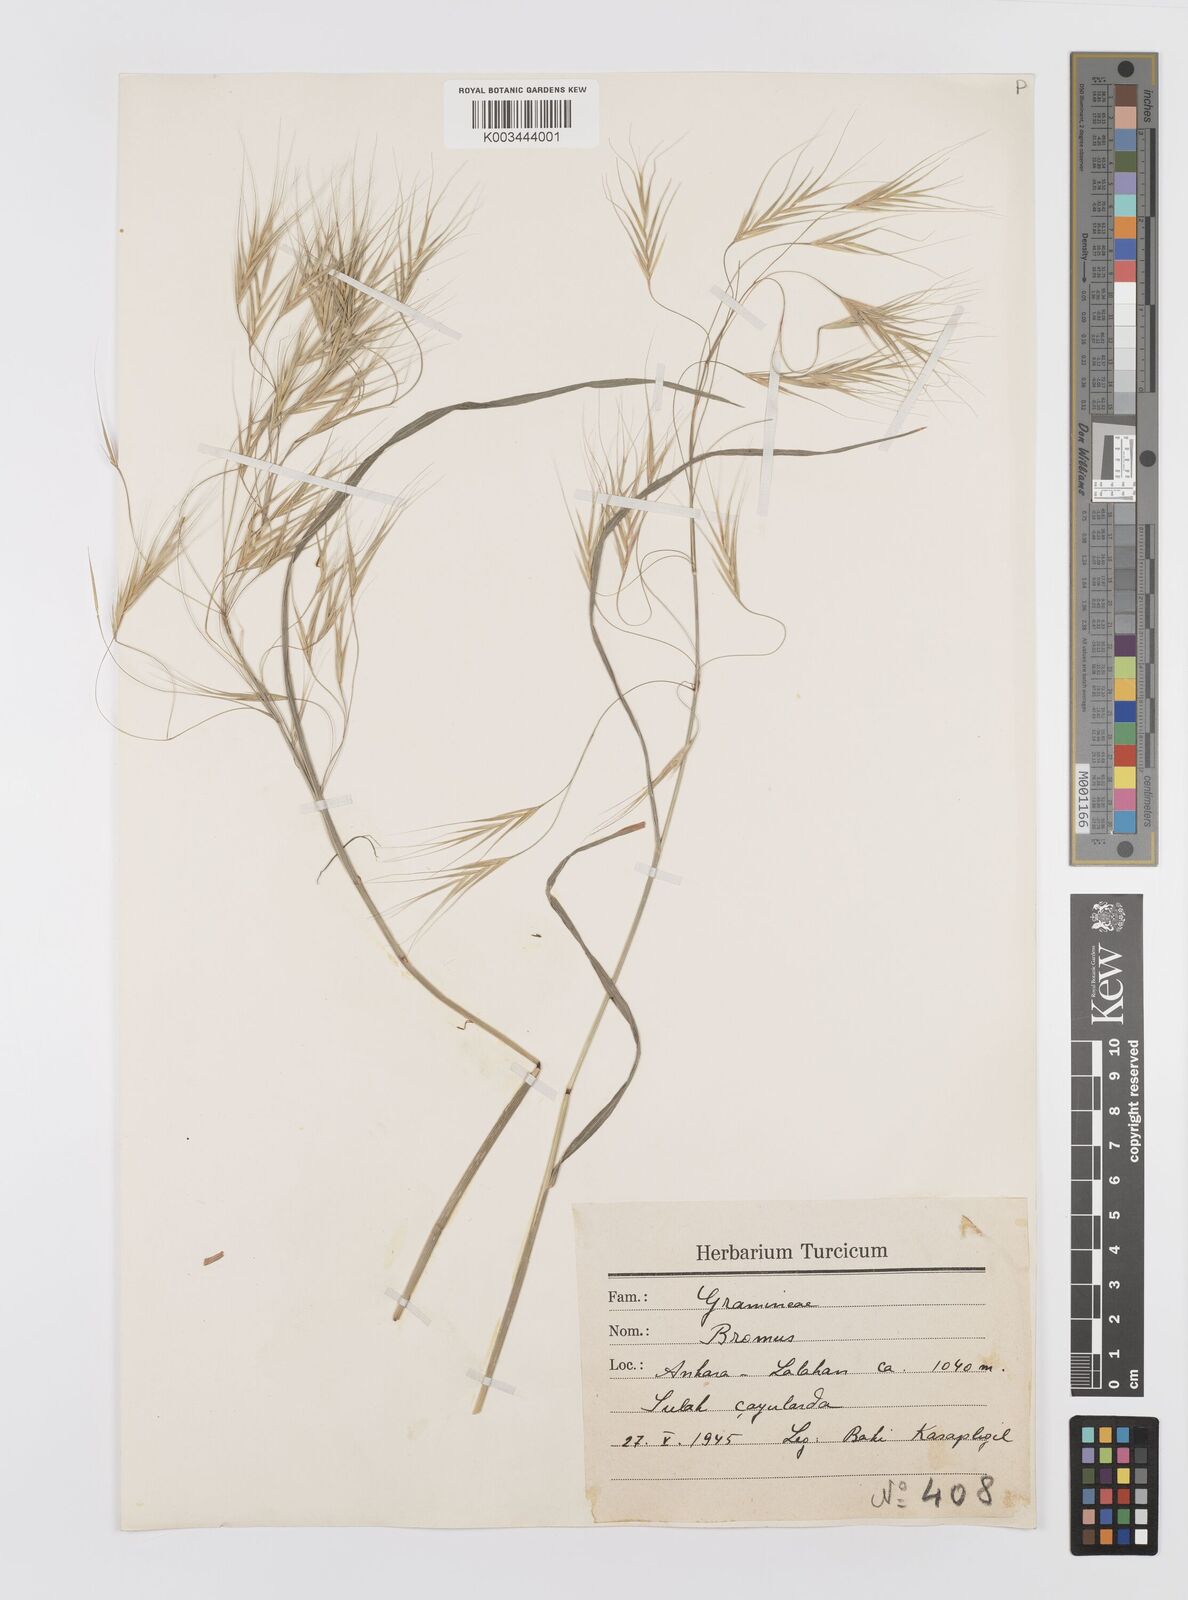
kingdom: Plantae
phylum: Tracheophyta
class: Liliopsida
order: Poales
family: Poaceae
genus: Bromus
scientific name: Bromus sterilis
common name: Poverty brome
